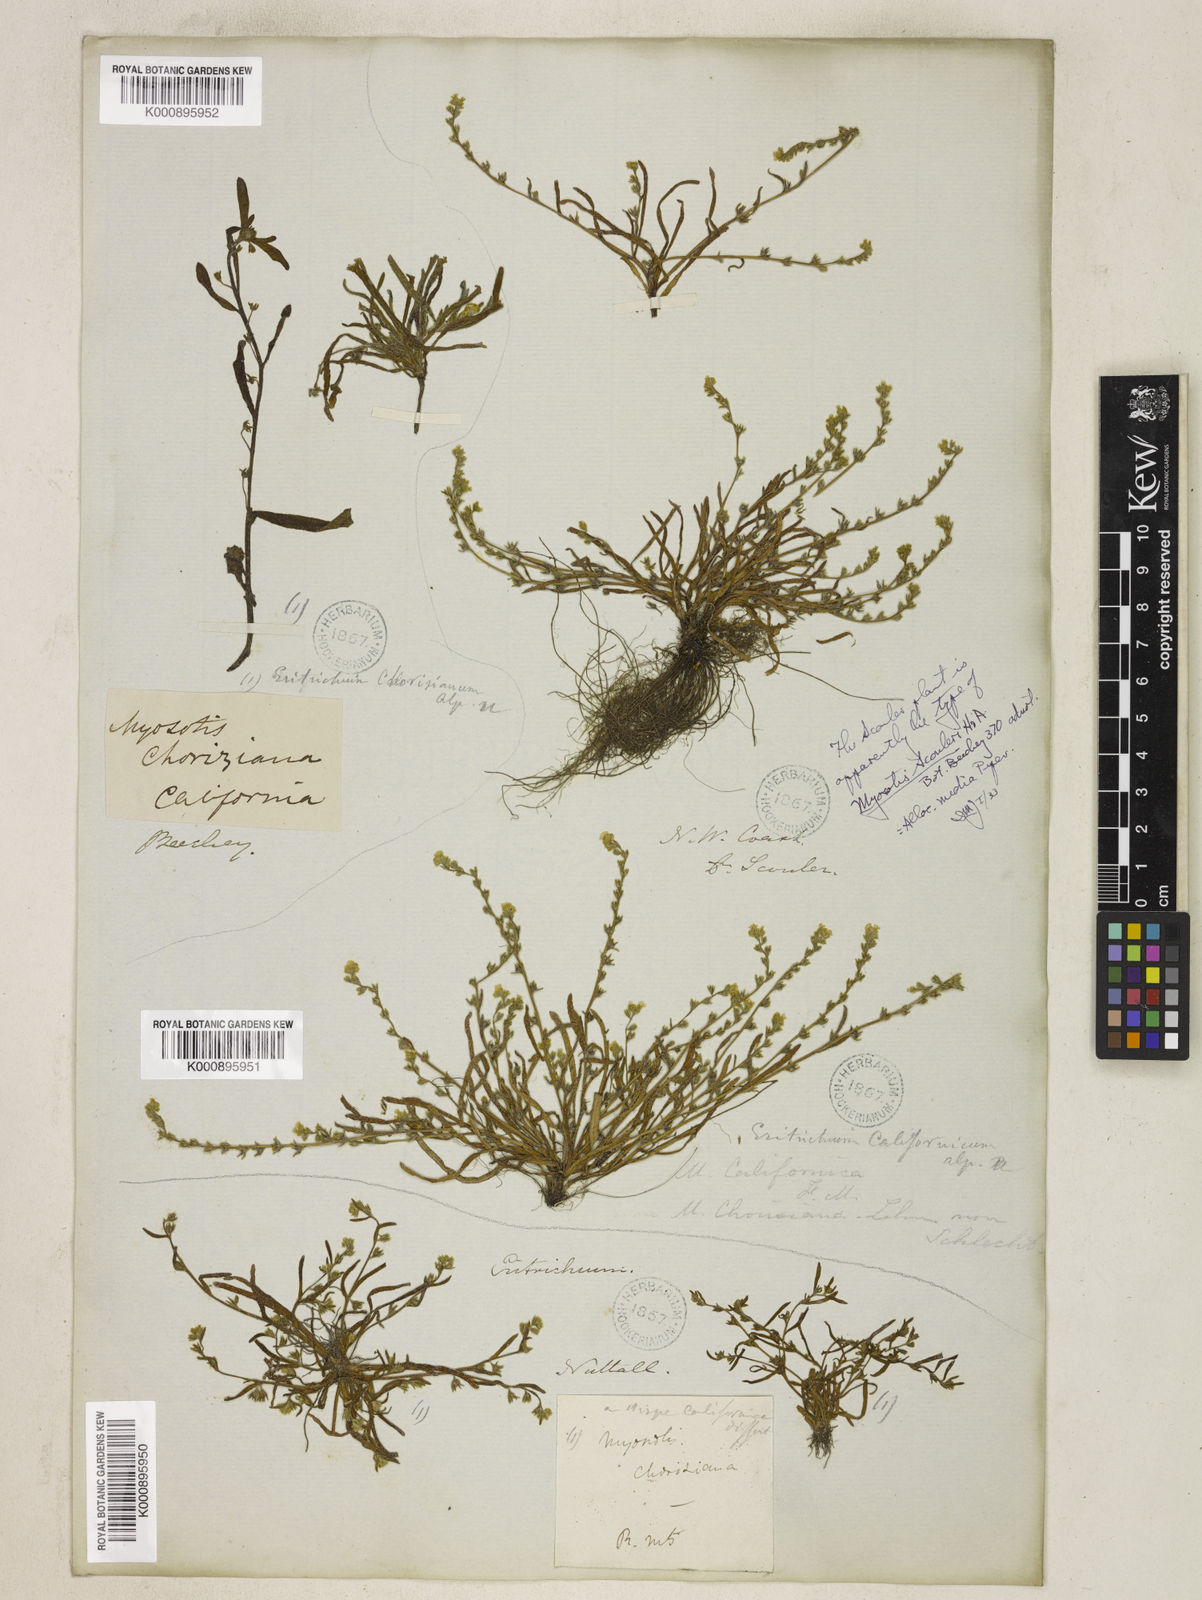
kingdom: Plantae
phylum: Tracheophyta
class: Magnoliopsida
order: Boraginales
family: Boraginaceae
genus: Plagiobothrys
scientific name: Plagiobothrys scouleri
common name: White forget-me-not
